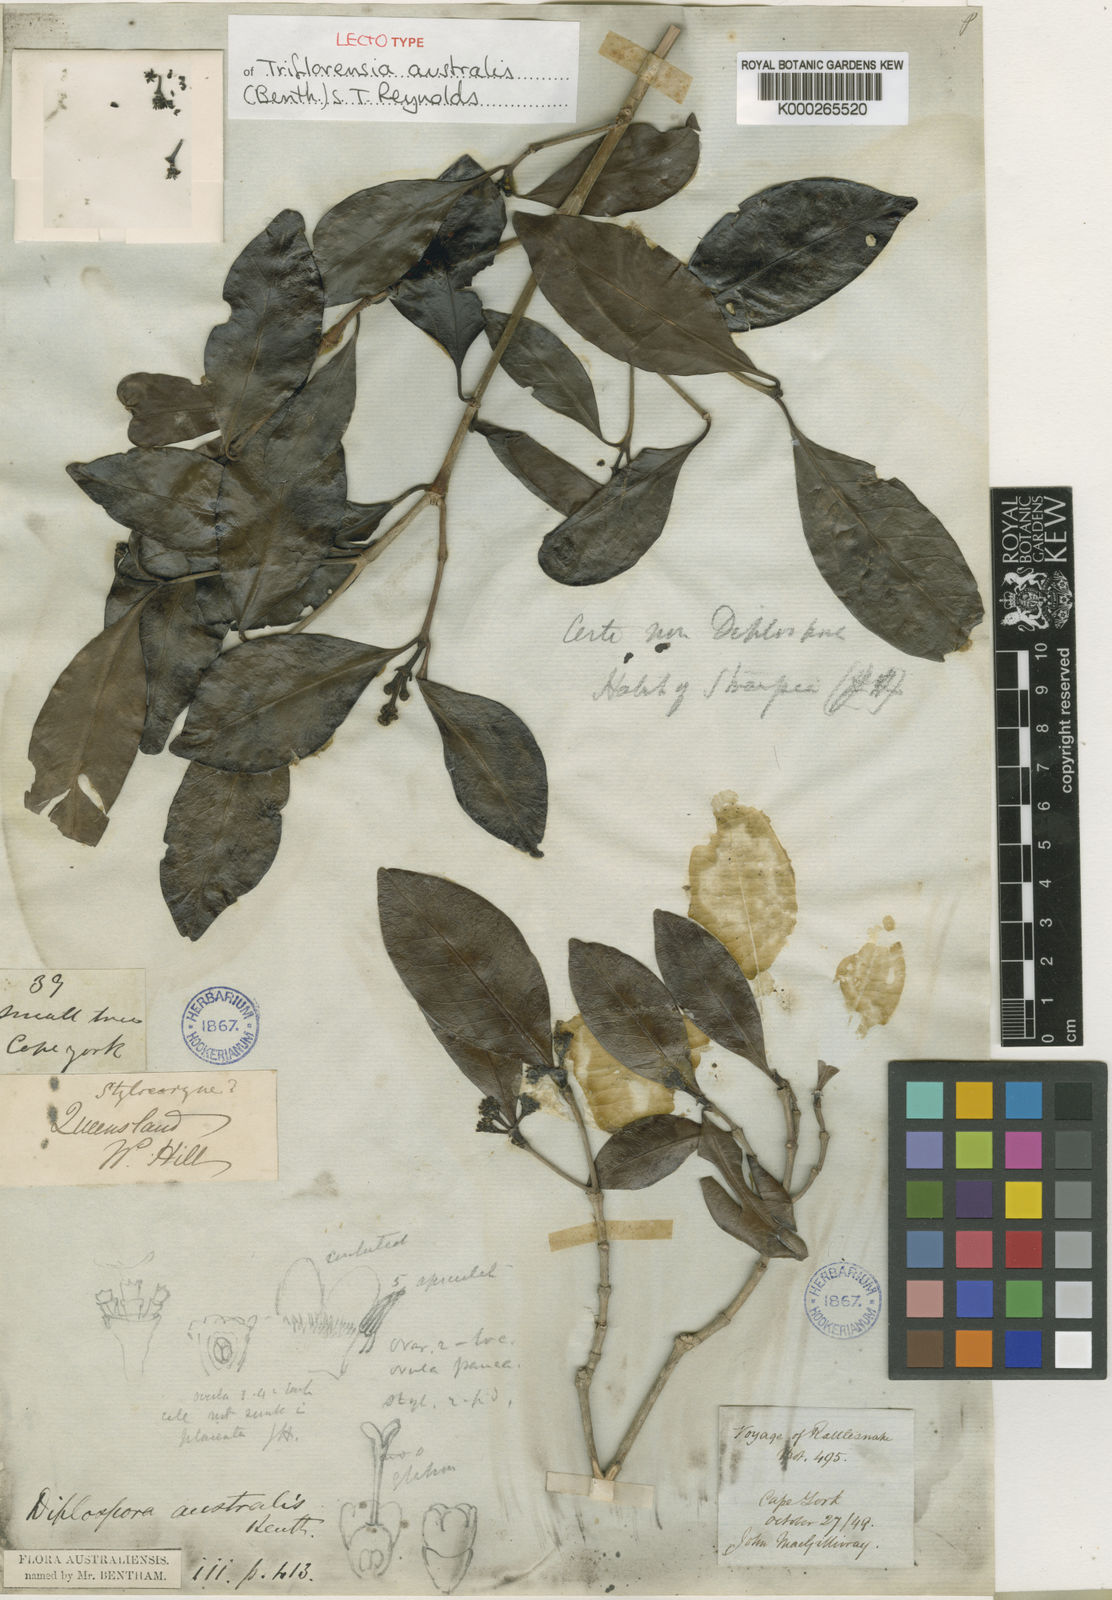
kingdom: Plantae
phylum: Tracheophyta
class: Magnoliopsida
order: Gentianales
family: Rubiaceae
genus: Triflorensia
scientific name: Triflorensia australis
